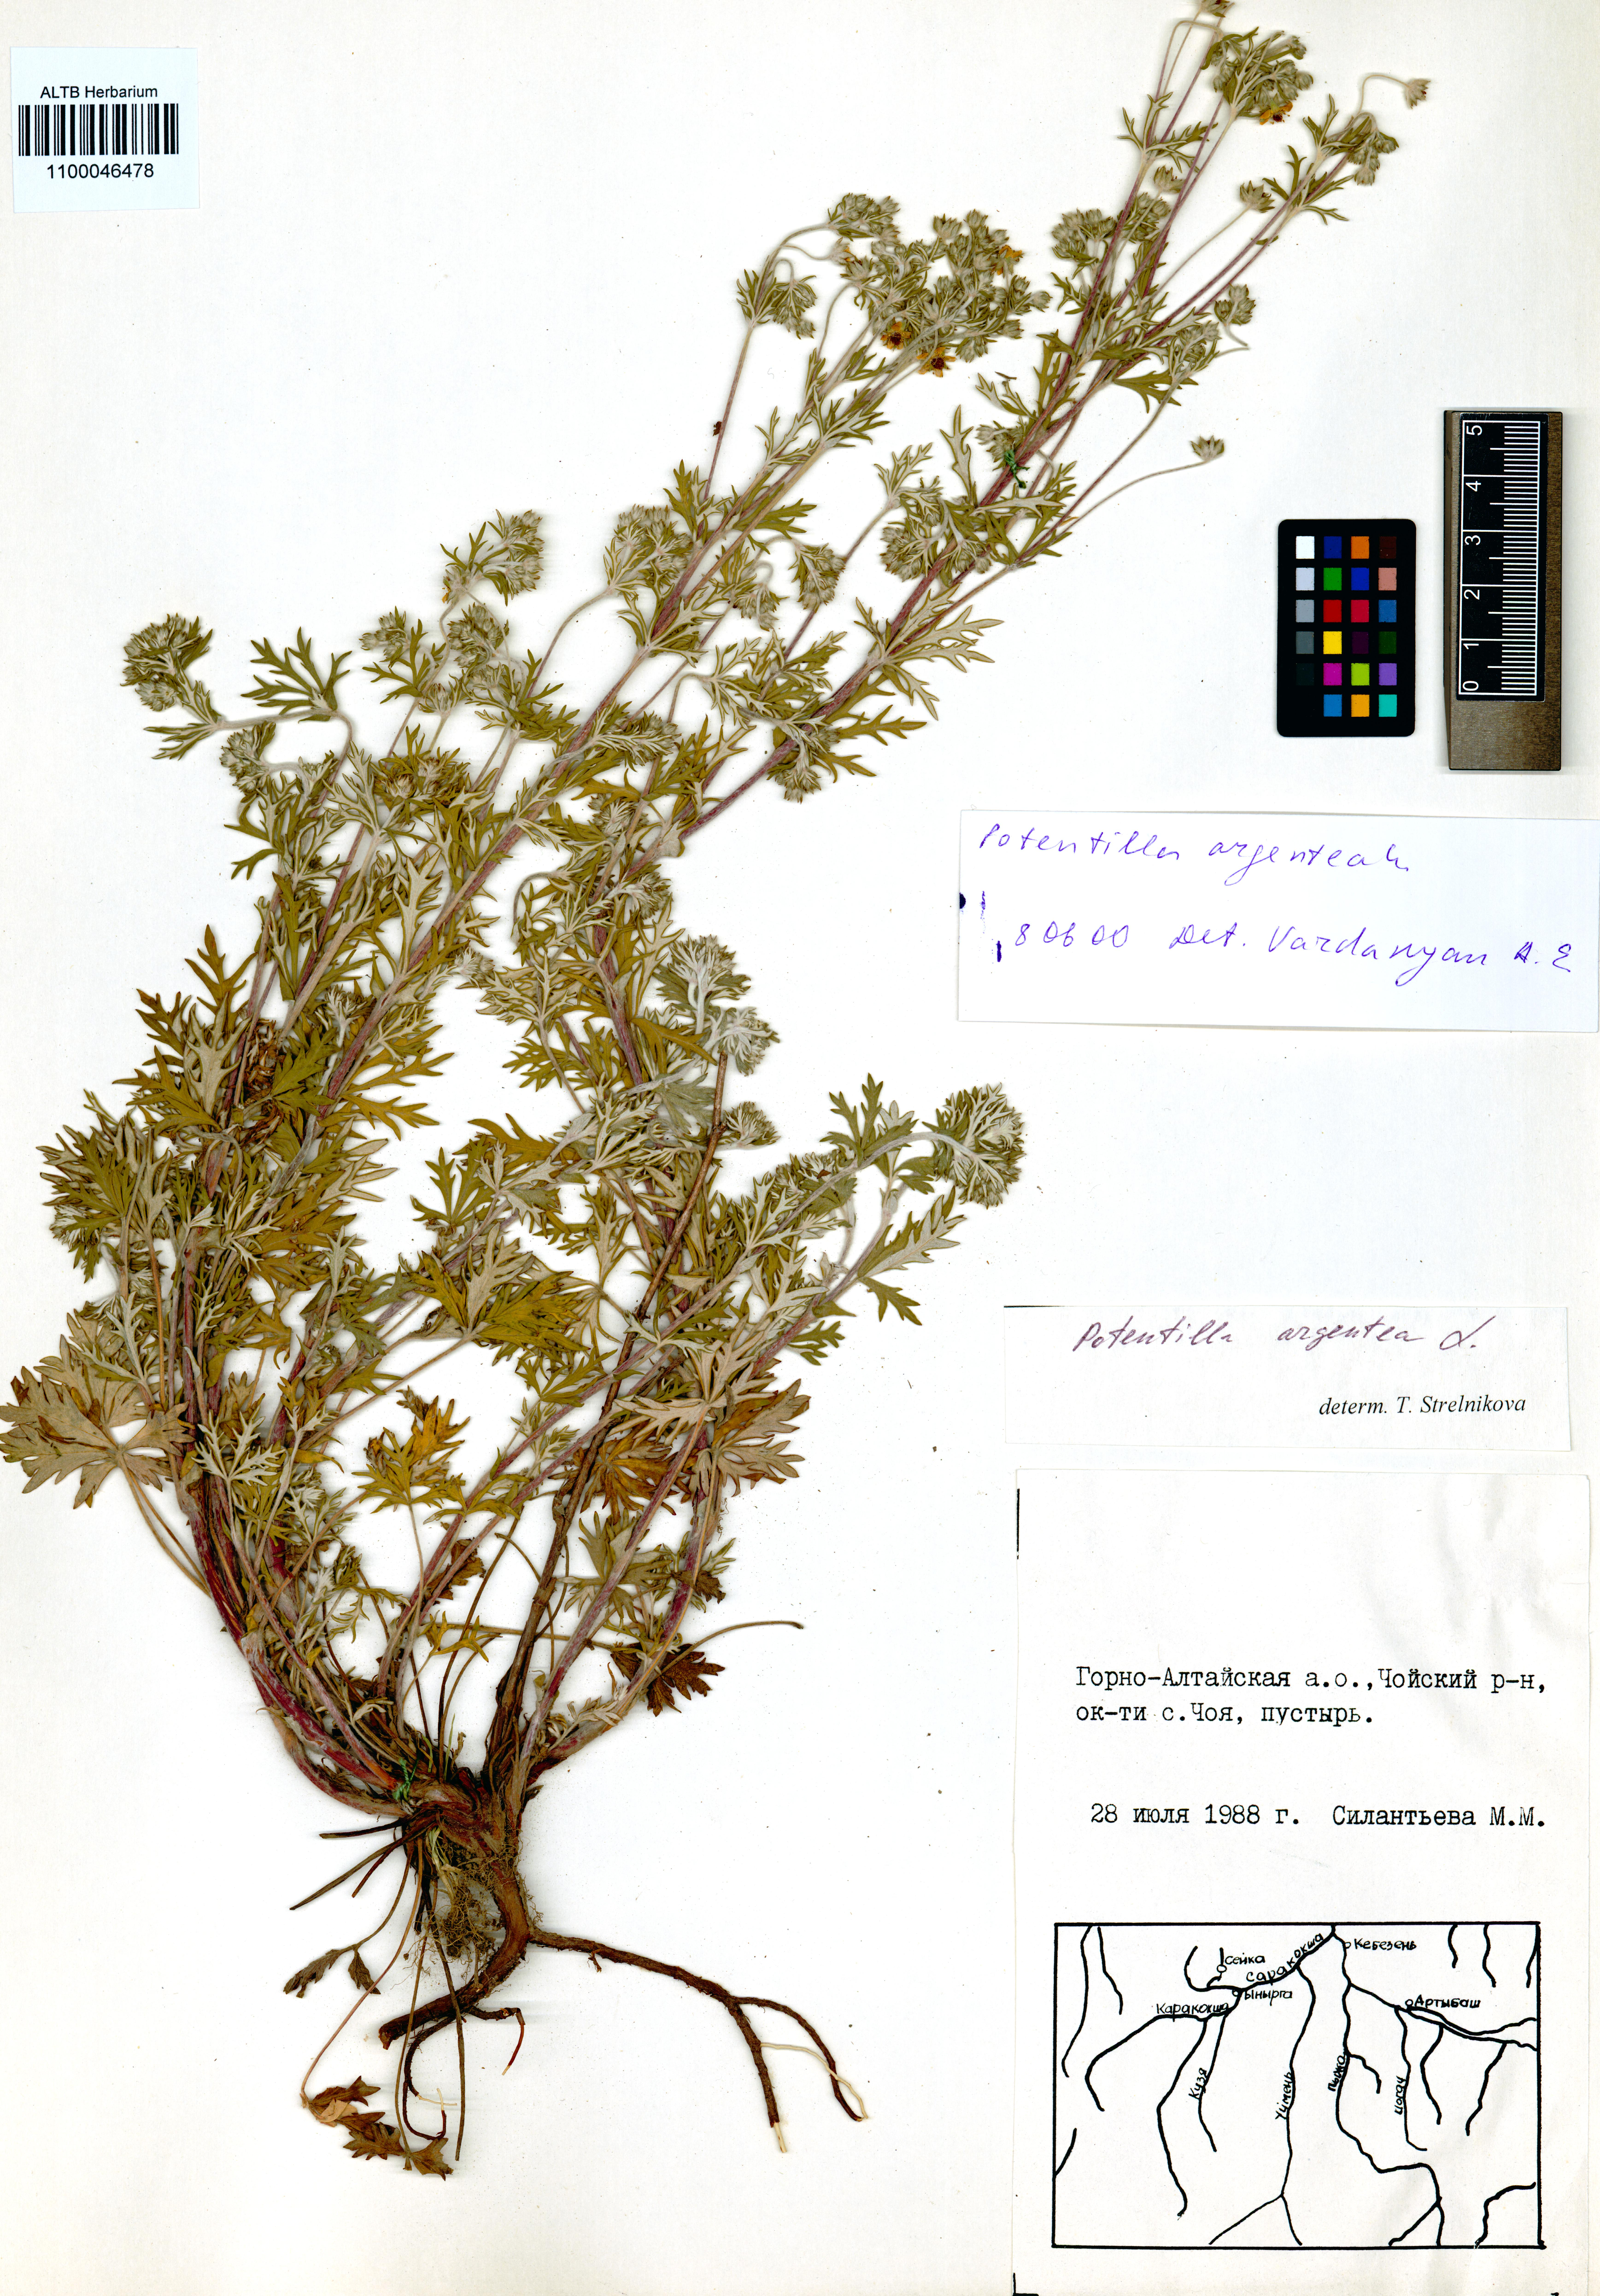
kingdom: Plantae
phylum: Tracheophyta
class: Magnoliopsida
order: Rosales
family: Rosaceae
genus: Potentilla
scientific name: Potentilla argentea
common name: Hoary cinquefoil
